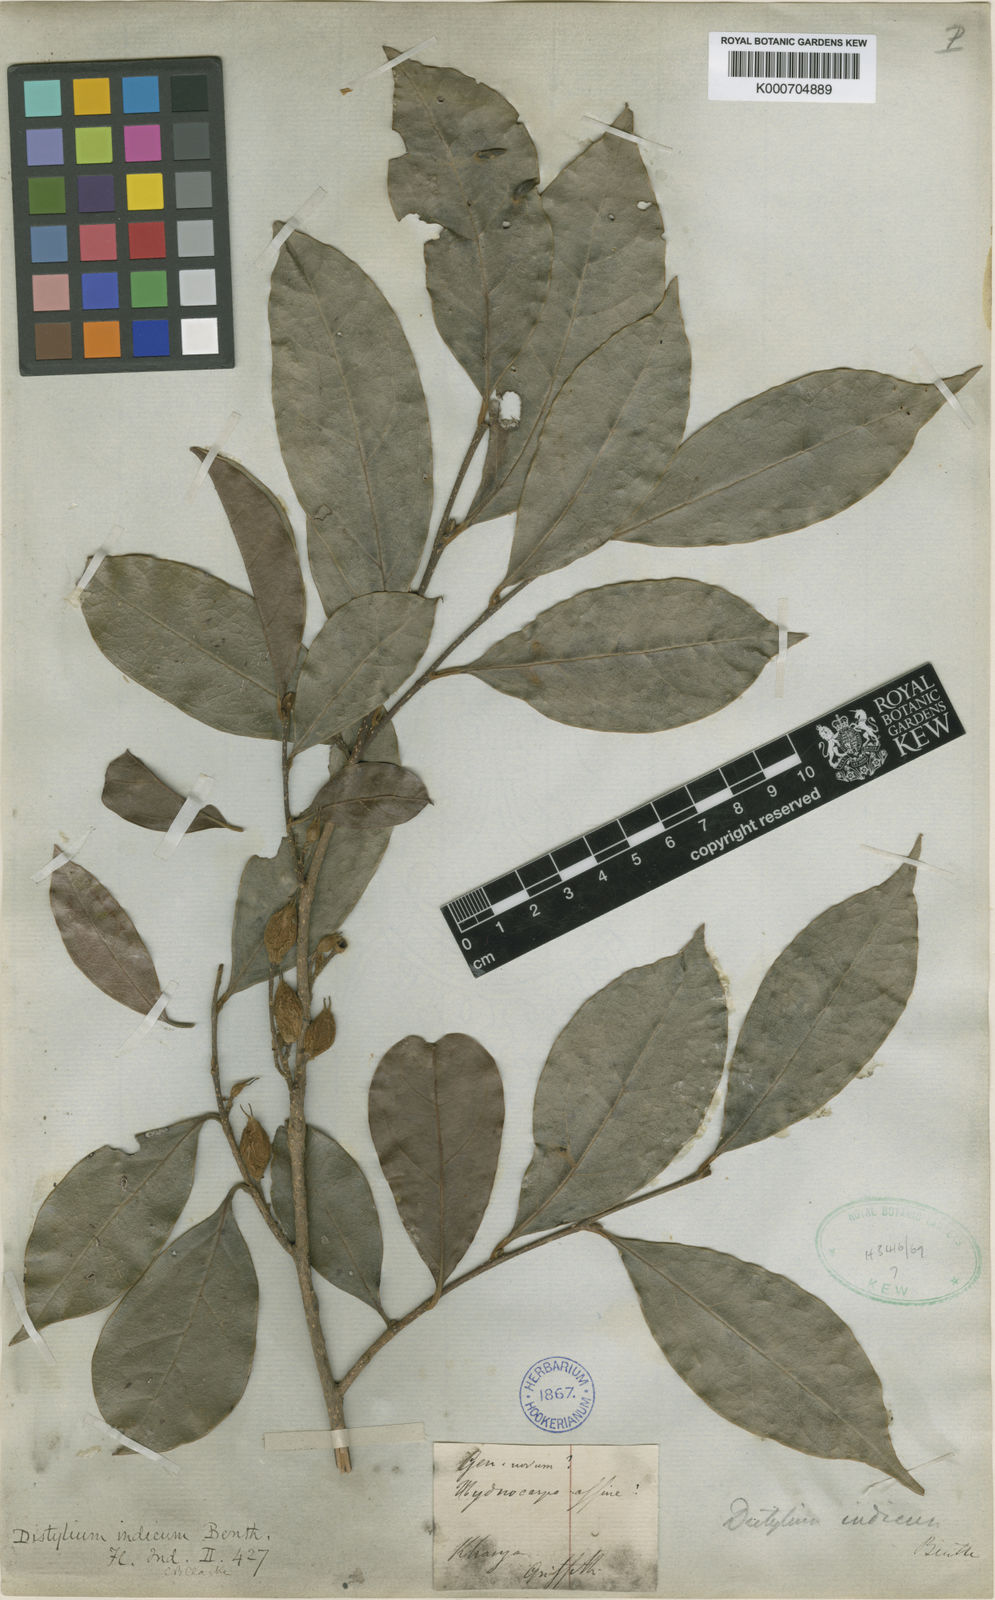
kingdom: Plantae
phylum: Tracheophyta
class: Magnoliopsida
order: Saxifragales
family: Hamamelidaceae
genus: Distylium
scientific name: Distylium indicum
